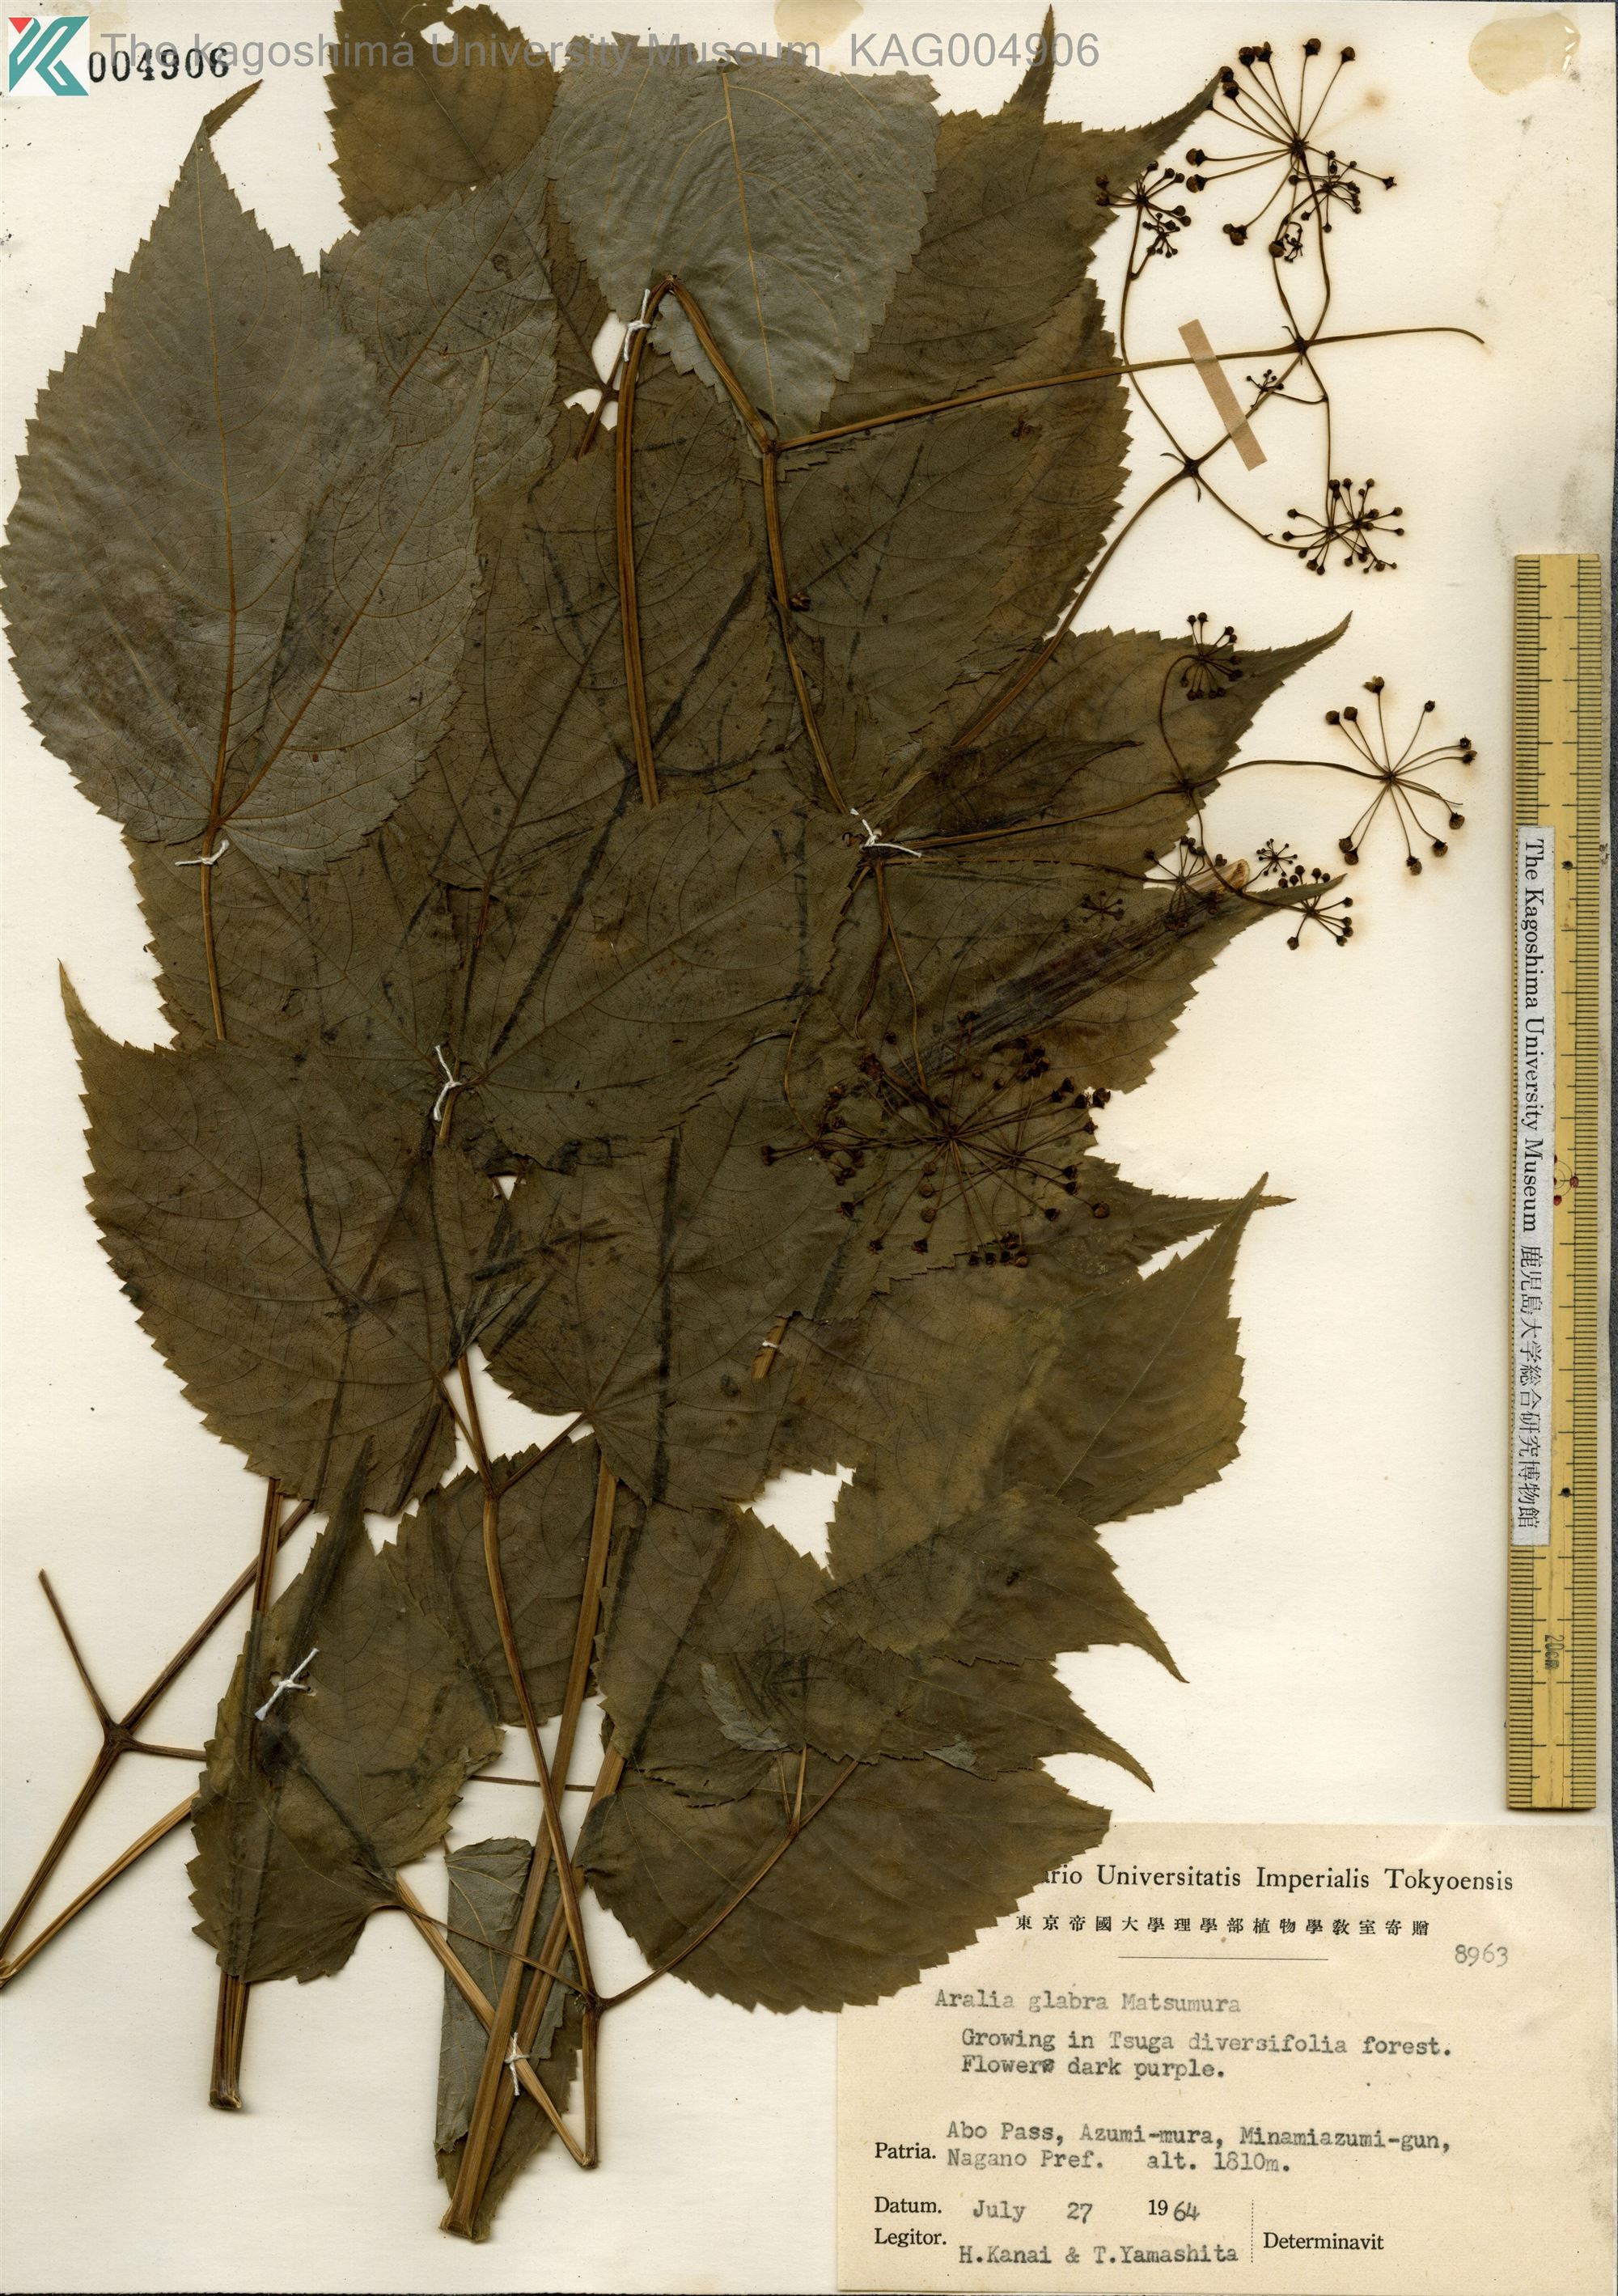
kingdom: Plantae
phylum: Tracheophyta
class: Magnoliopsida
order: Apiales
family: Araliaceae
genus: Aralia
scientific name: Aralia glabra
